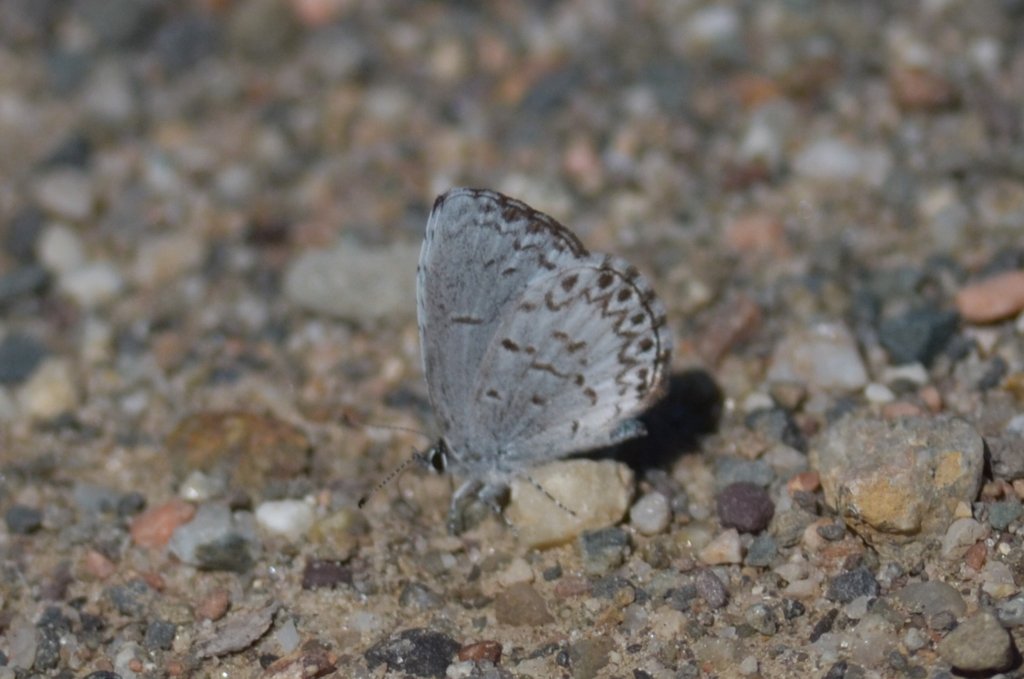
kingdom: Animalia
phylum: Arthropoda
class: Insecta
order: Lepidoptera
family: Lycaenidae
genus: Celastrina
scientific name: Celastrina lucia
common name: Northern Spring Azure
